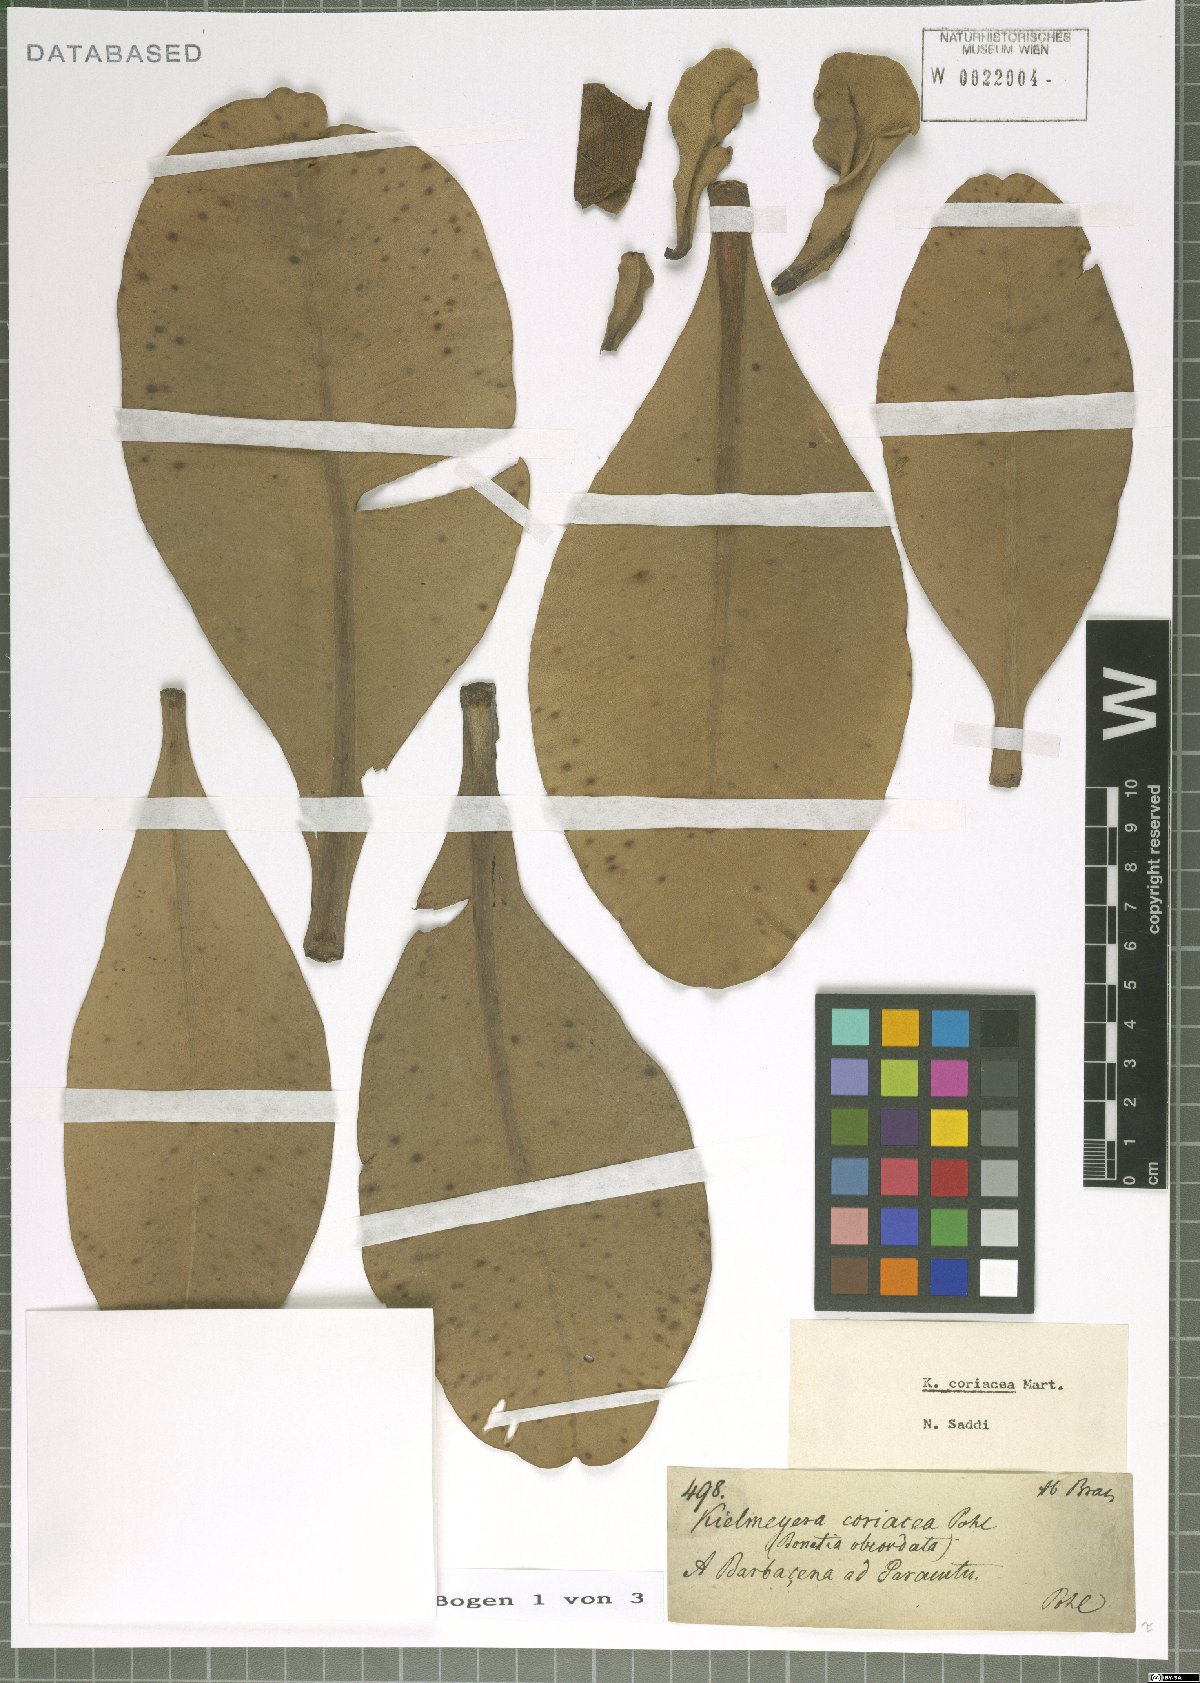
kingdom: Plantae
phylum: Tracheophyta
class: Magnoliopsida
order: Malpighiales
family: Calophyllaceae
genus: Kielmeyera
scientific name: Kielmeyera coriacea
